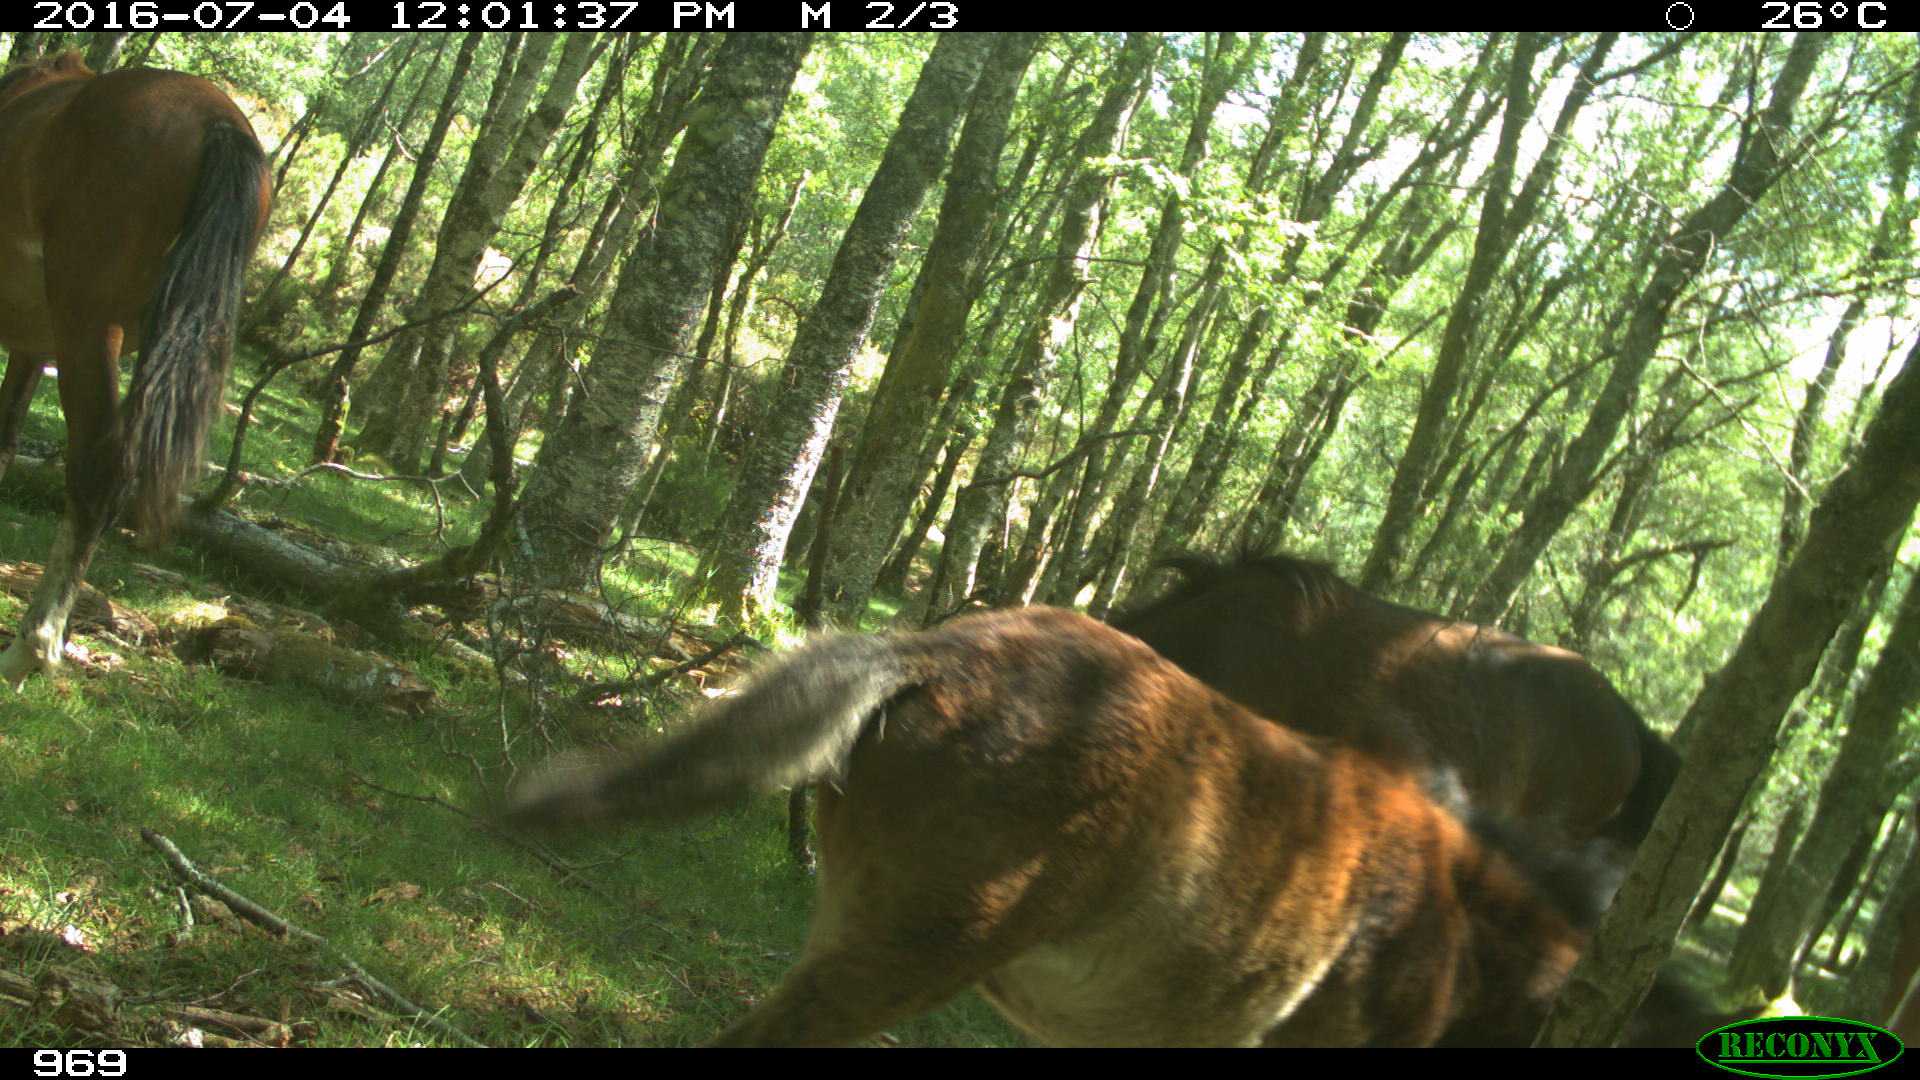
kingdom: Animalia
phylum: Chordata
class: Mammalia
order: Perissodactyla
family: Equidae
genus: Equus
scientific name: Equus caballus
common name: Horse
